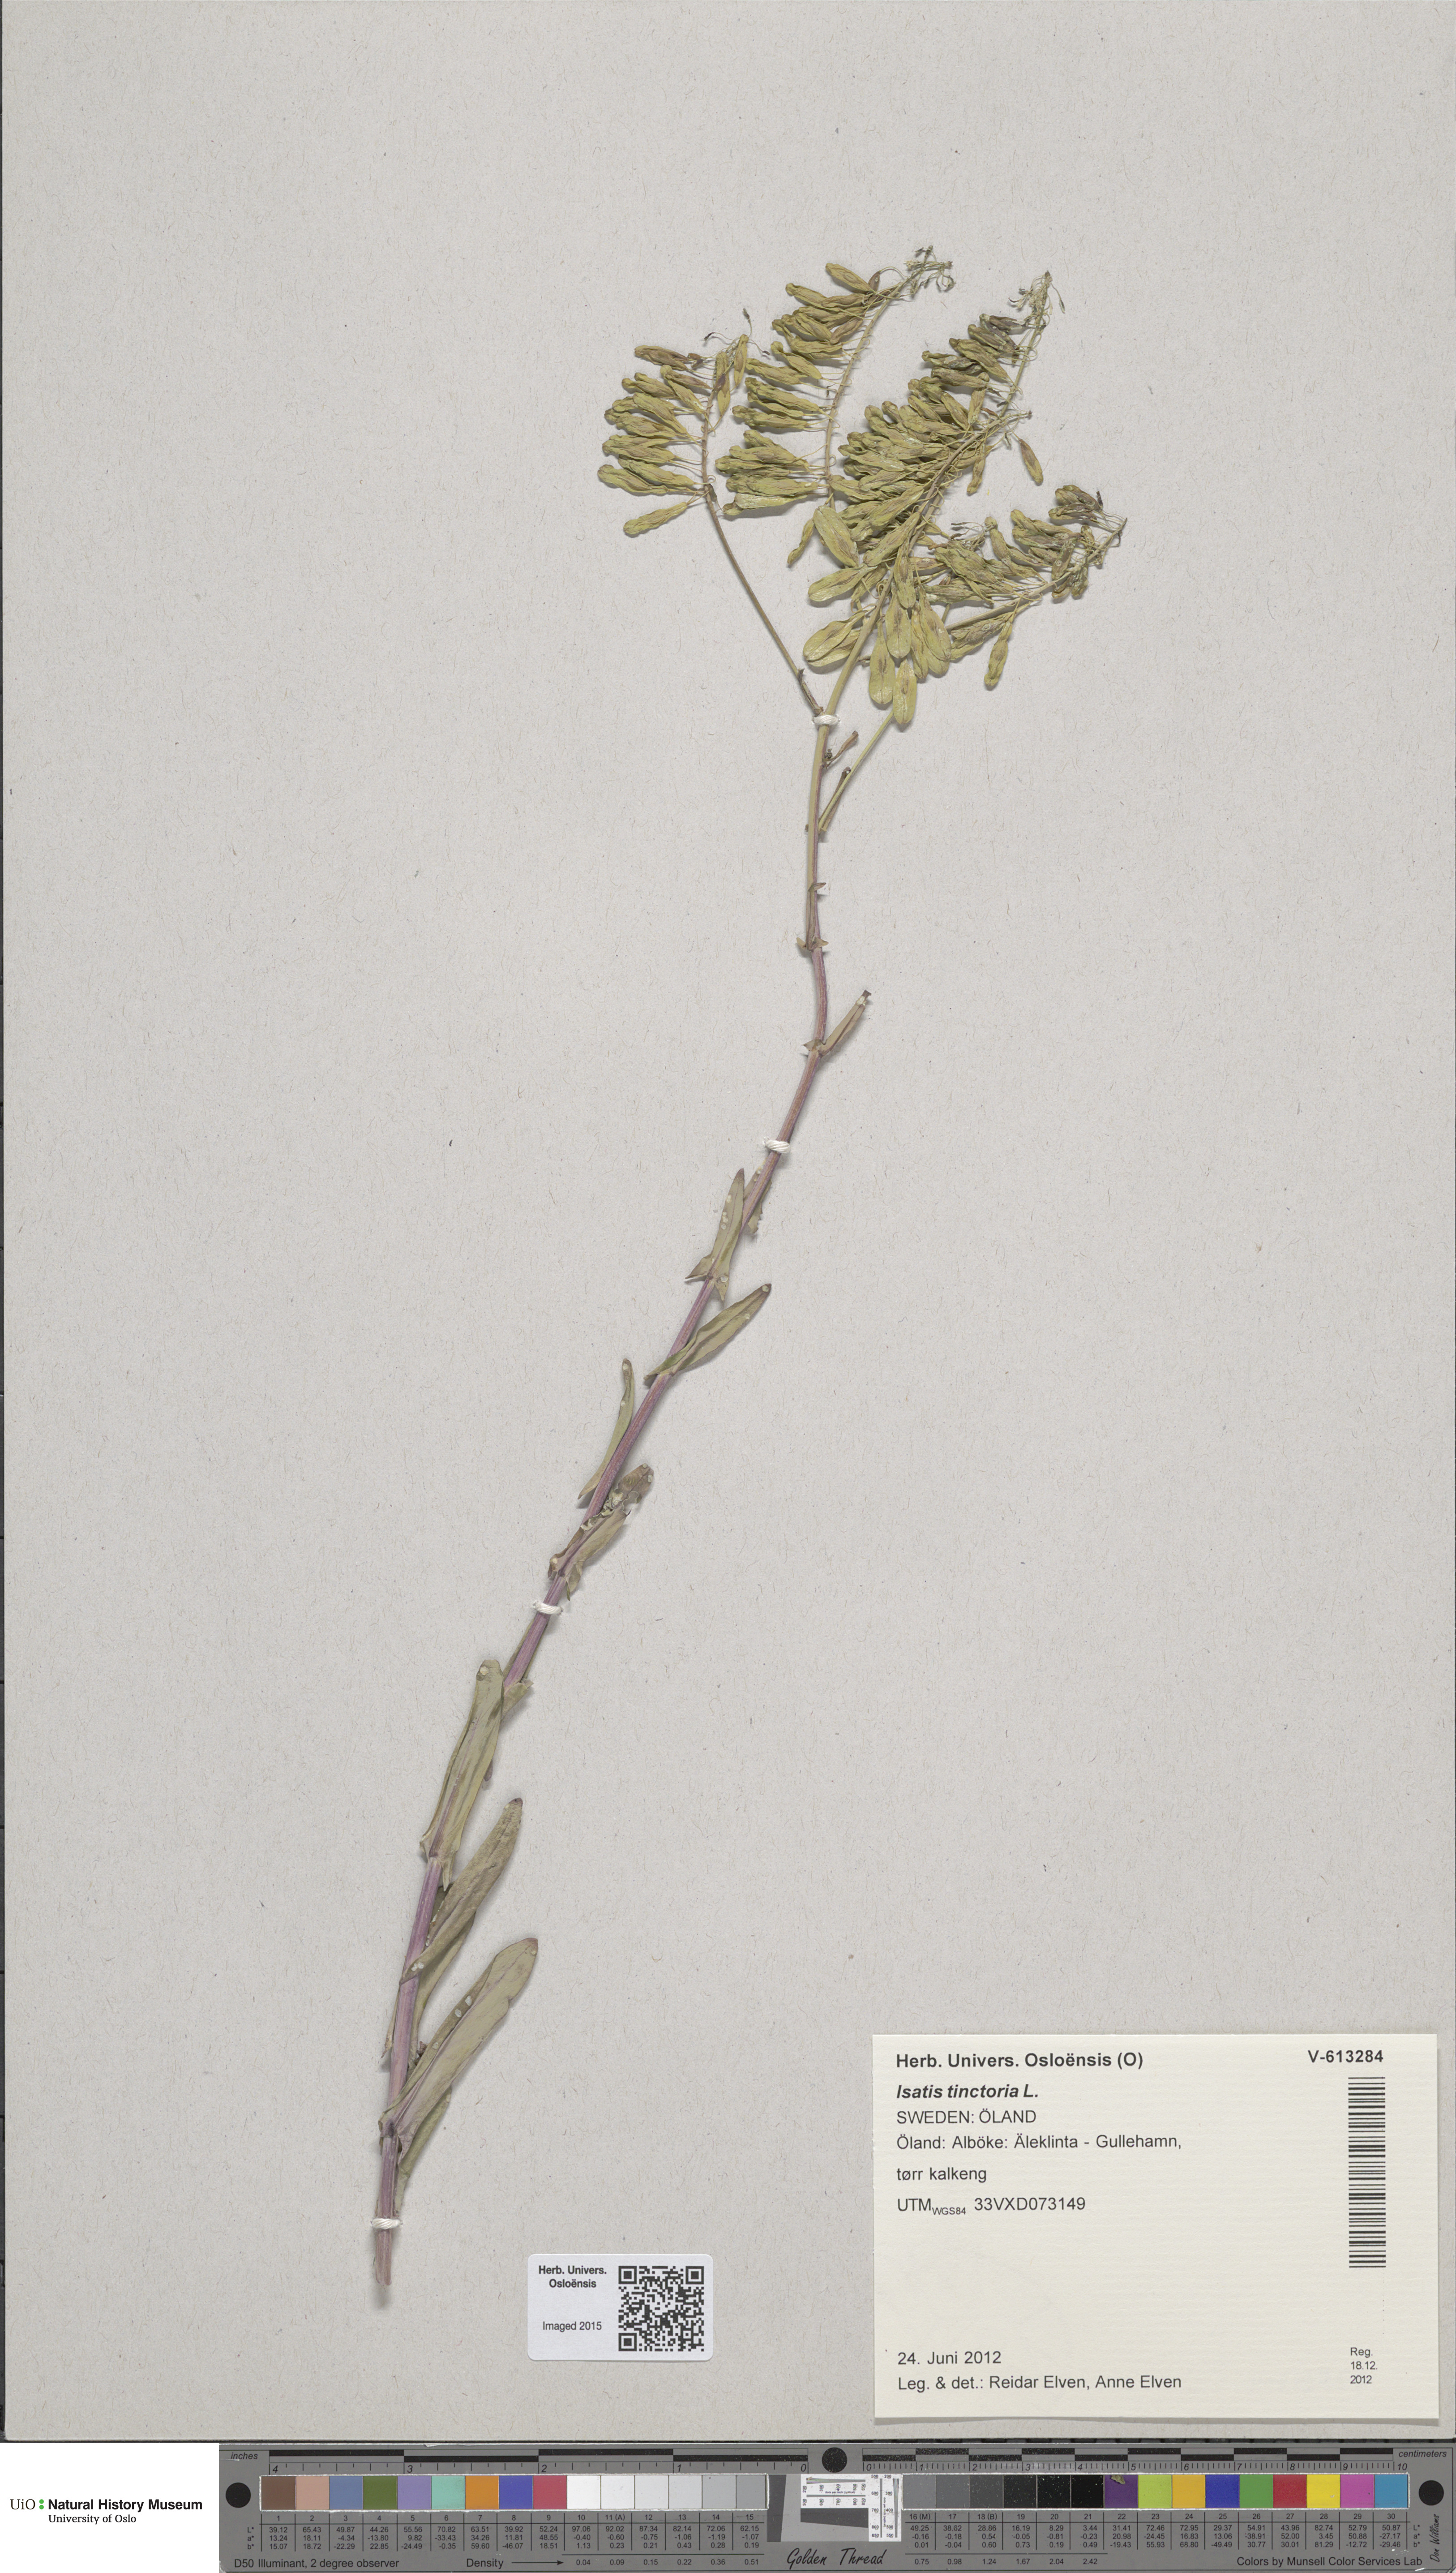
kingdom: Plantae
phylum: Tracheophyta
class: Magnoliopsida
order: Brassicales
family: Brassicaceae
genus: Isatis
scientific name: Isatis tinctoria
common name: Woad
